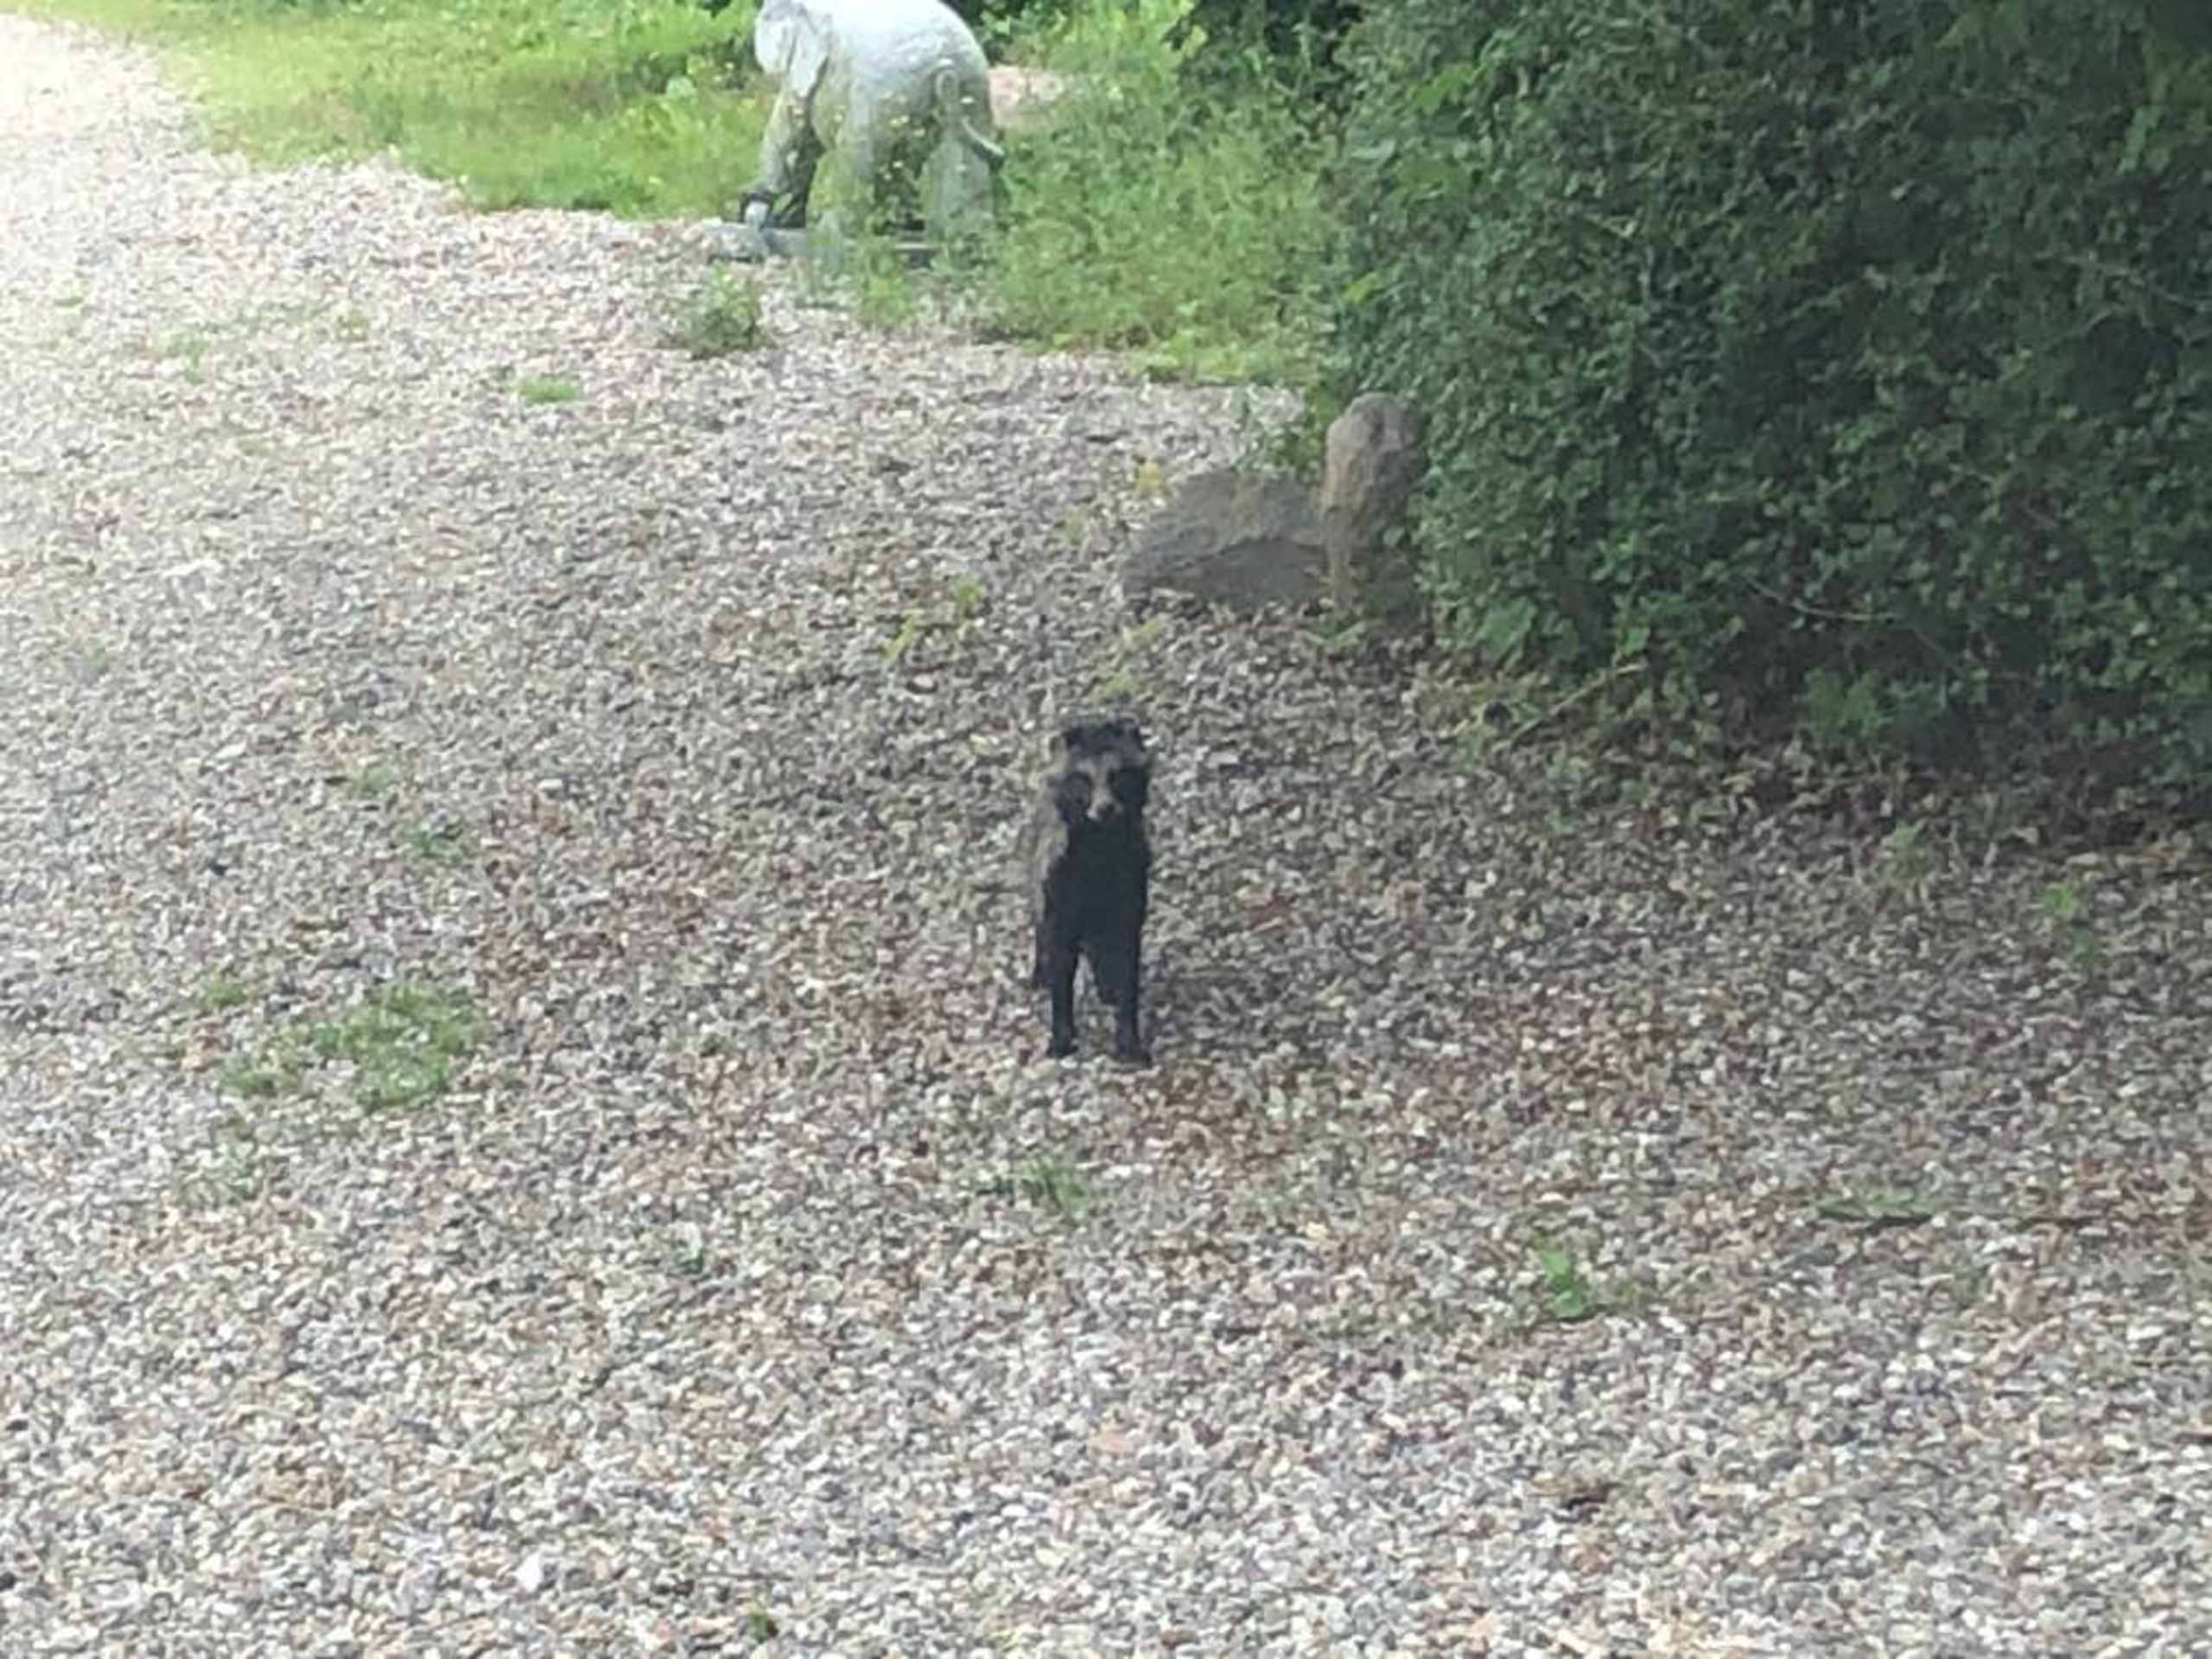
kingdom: Animalia
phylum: Chordata
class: Mammalia
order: Carnivora
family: Canidae
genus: Nyctereutes
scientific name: Nyctereutes procyonoides
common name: Mårhund
